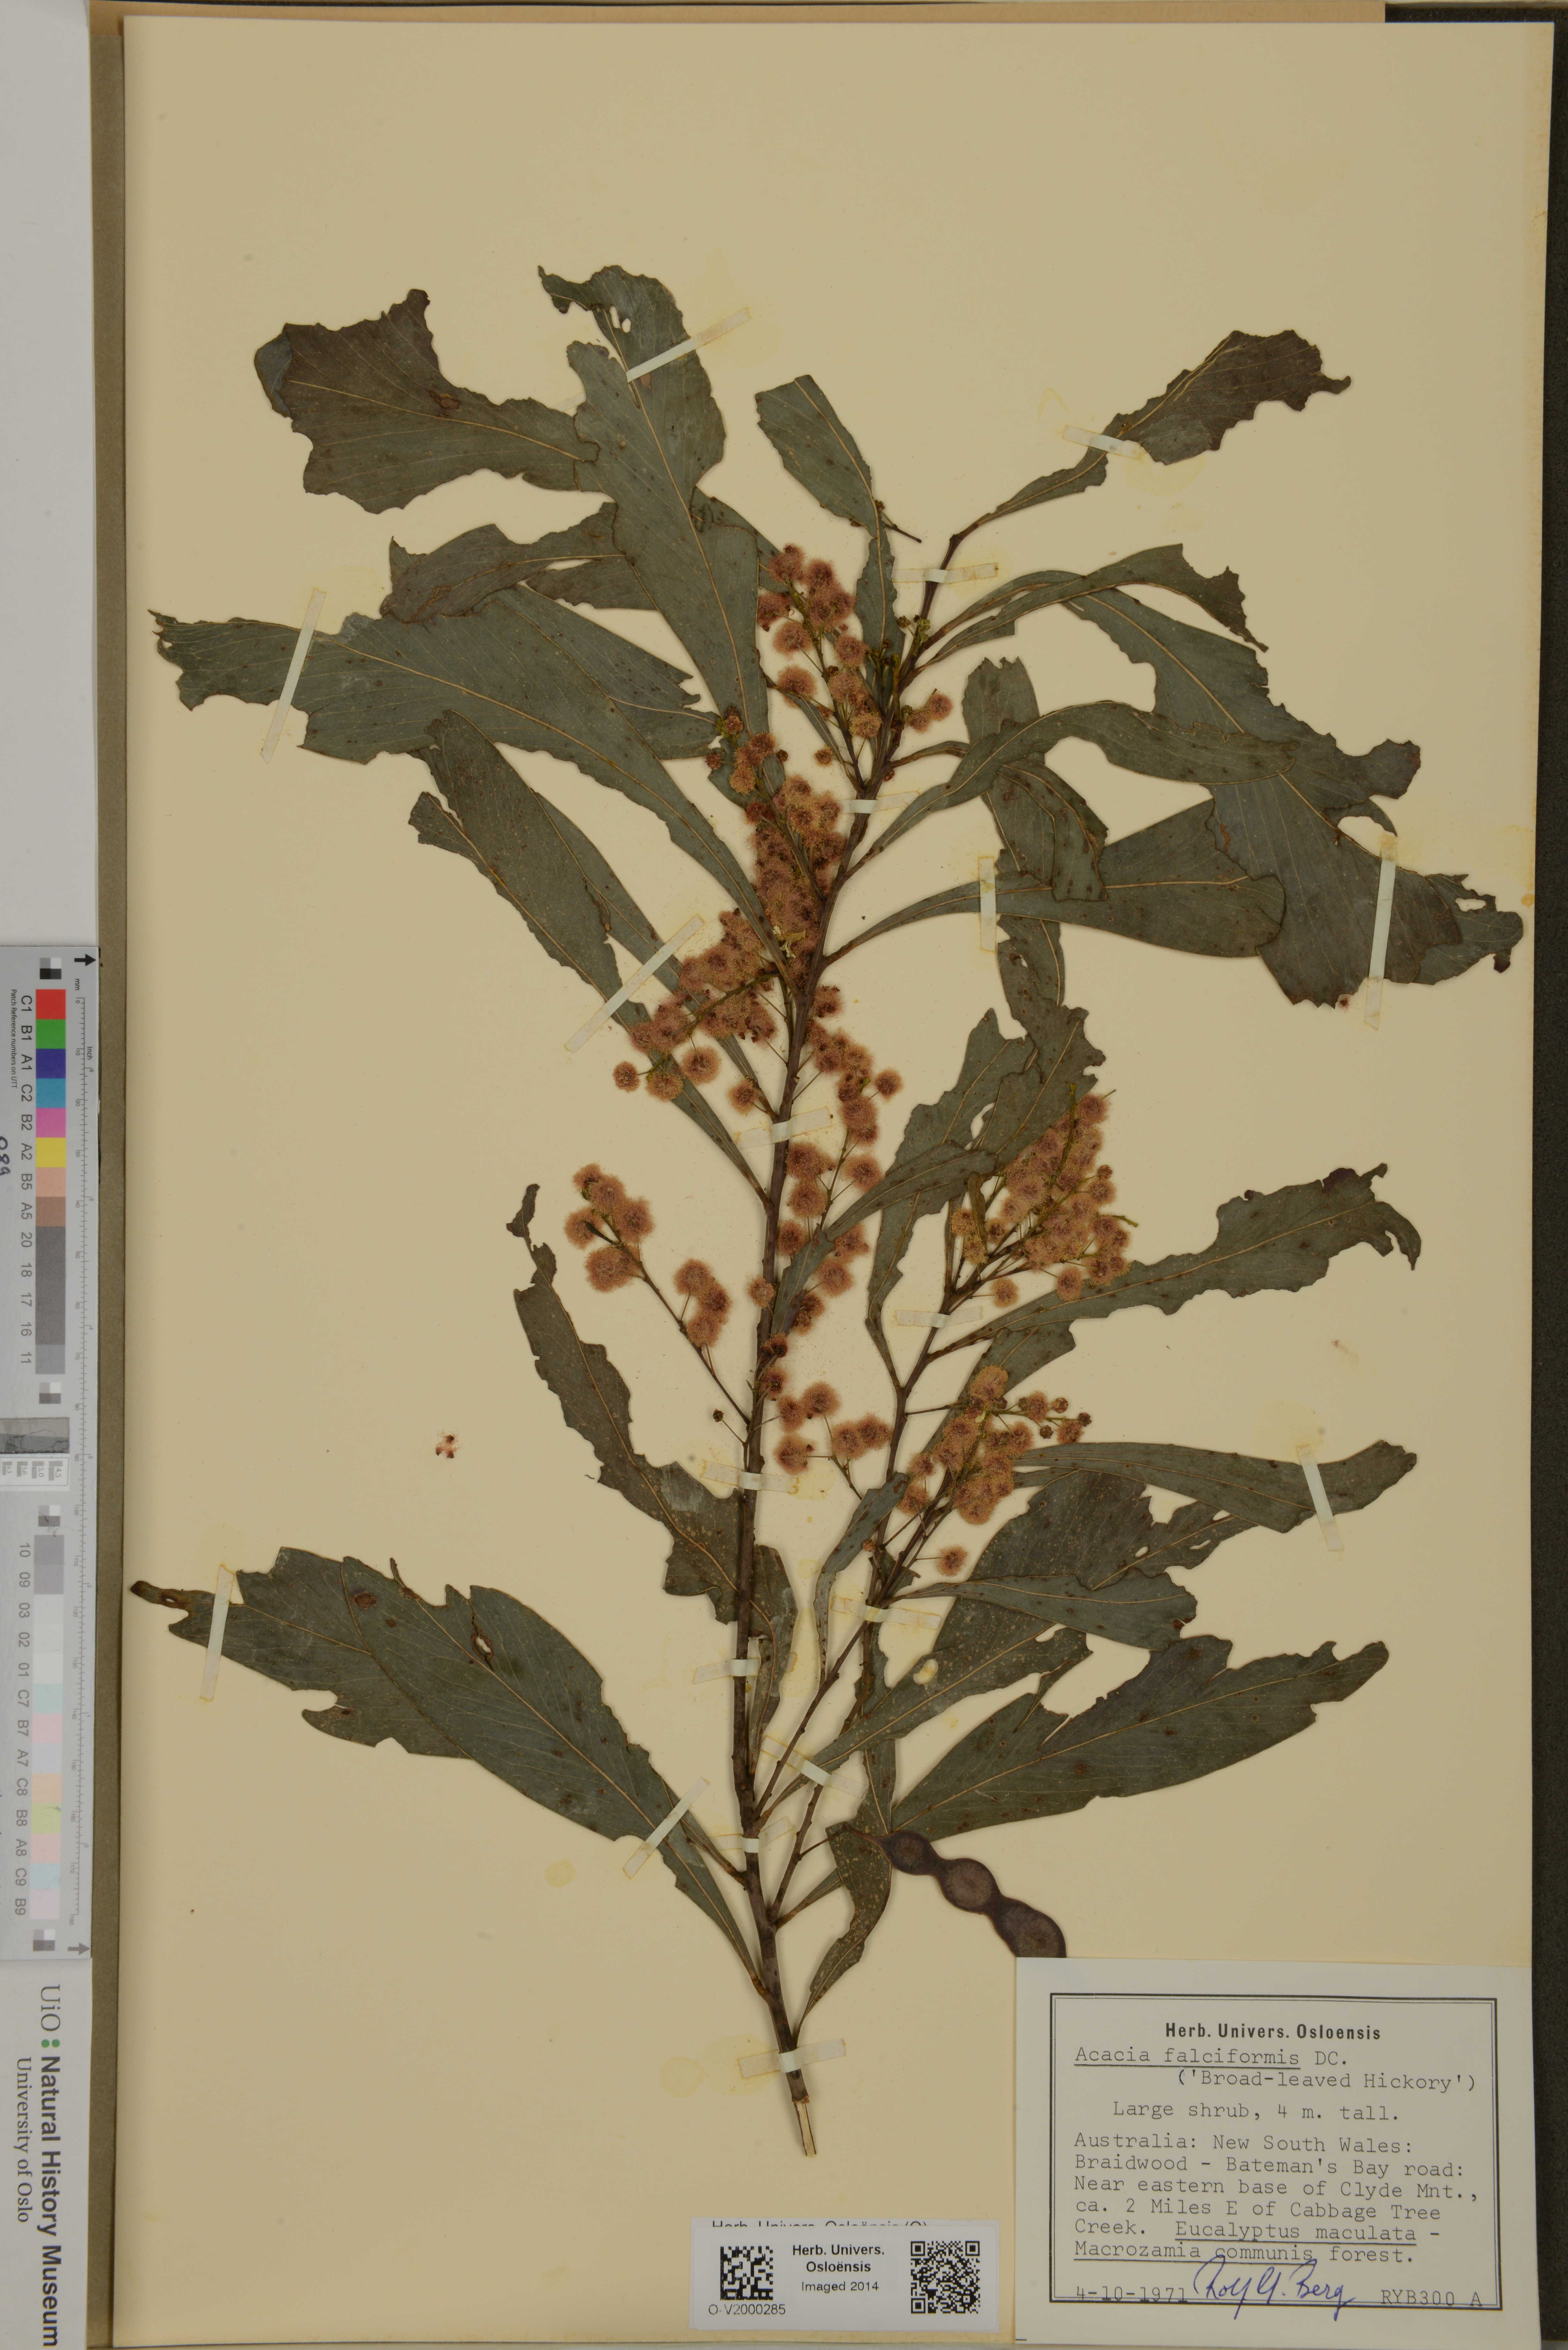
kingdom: Plantae
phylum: Tracheophyta
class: Magnoliopsida
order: Fabales
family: Fabaceae
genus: Acacia
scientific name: Acacia falciformis
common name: Tanning wattle
